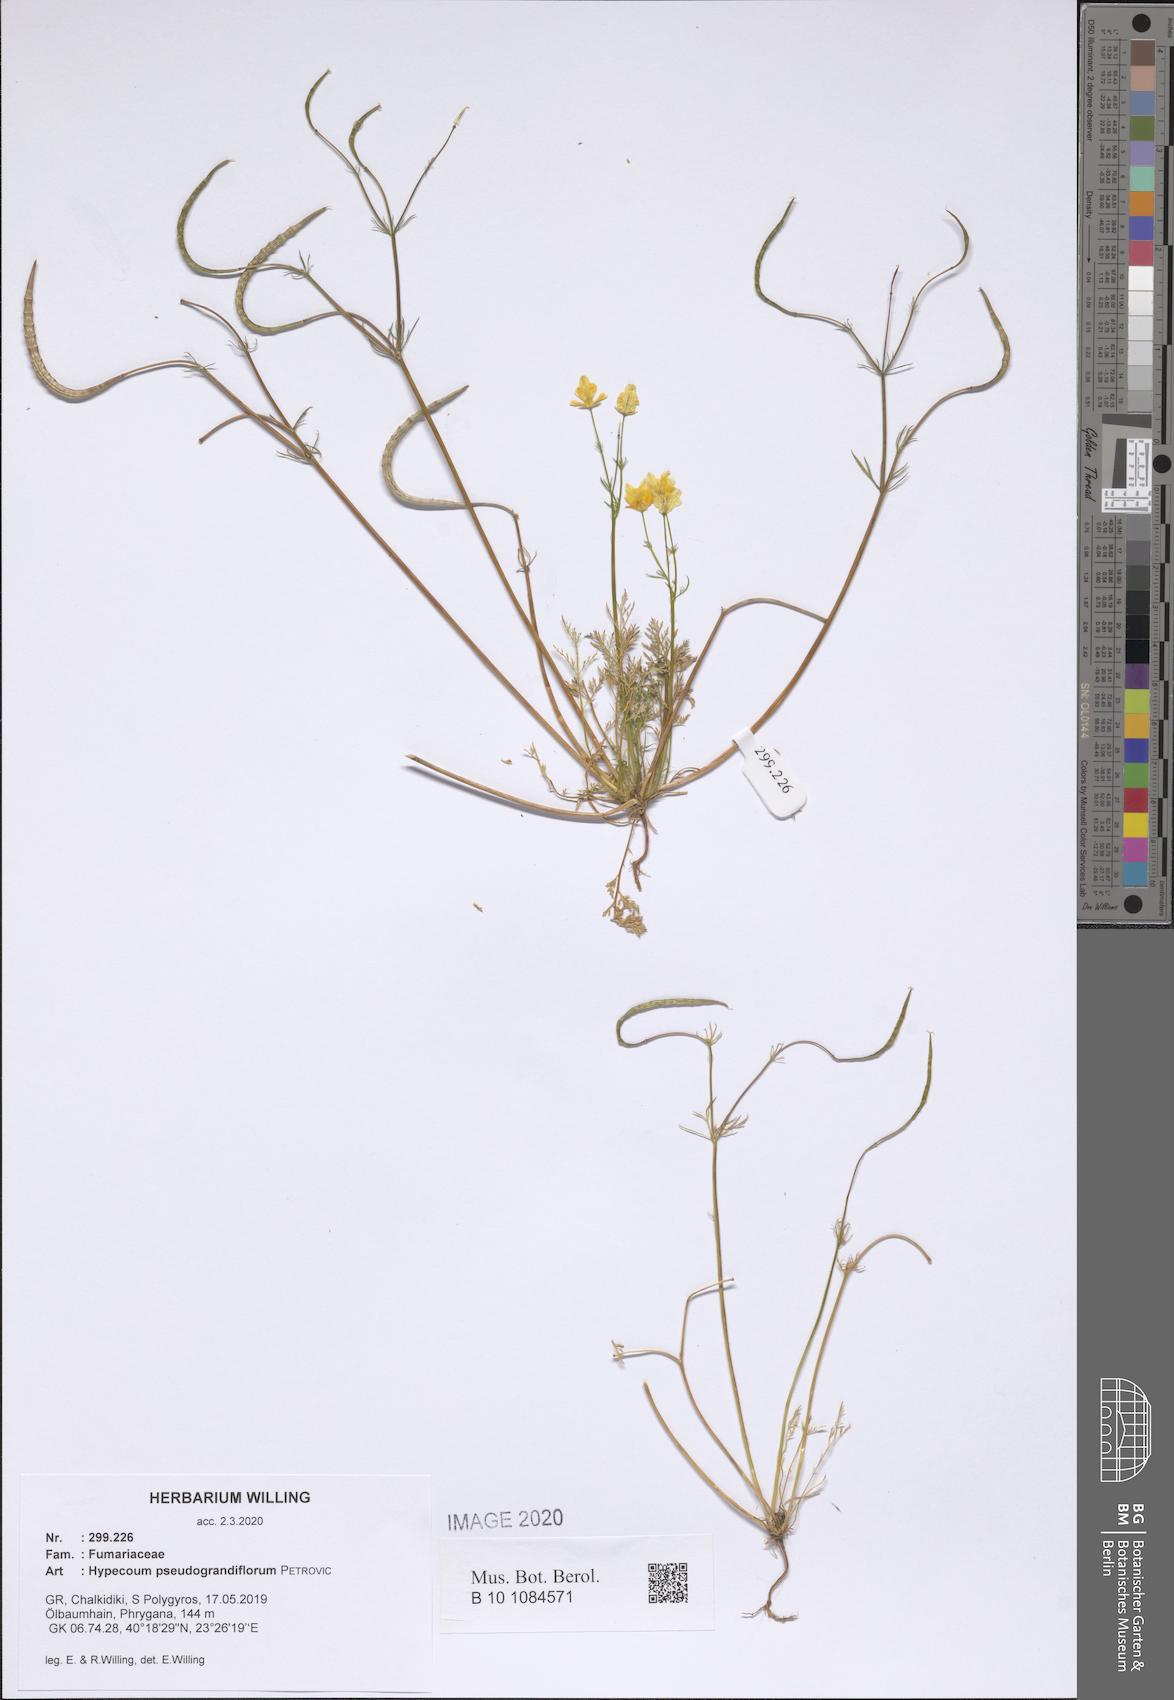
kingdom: Plantae
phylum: Tracheophyta
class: Magnoliopsida
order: Ranunculales
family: Papaveraceae
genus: Hypecoum
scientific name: Hypecoum pseudograndiflorum
